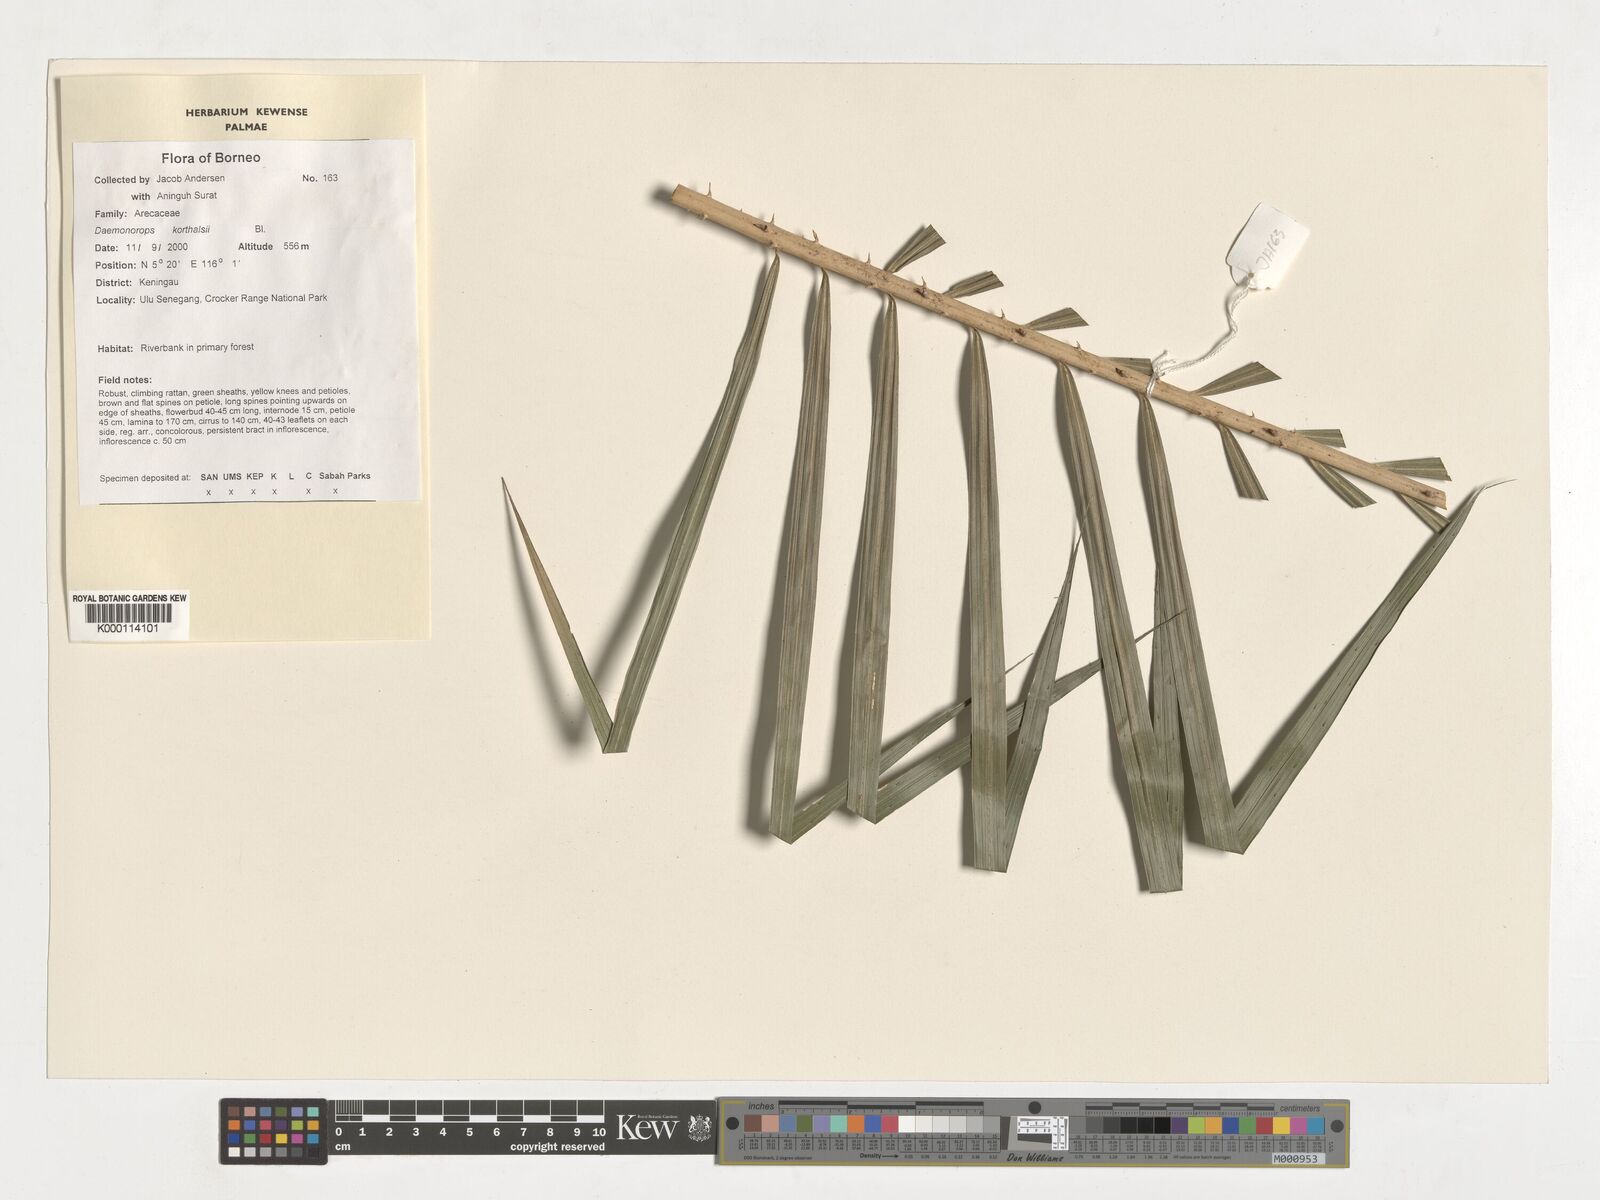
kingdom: Plantae
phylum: Tracheophyta
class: Liliopsida
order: Arecales
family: Arecaceae
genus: Calamus
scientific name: Calamus hirsutus
